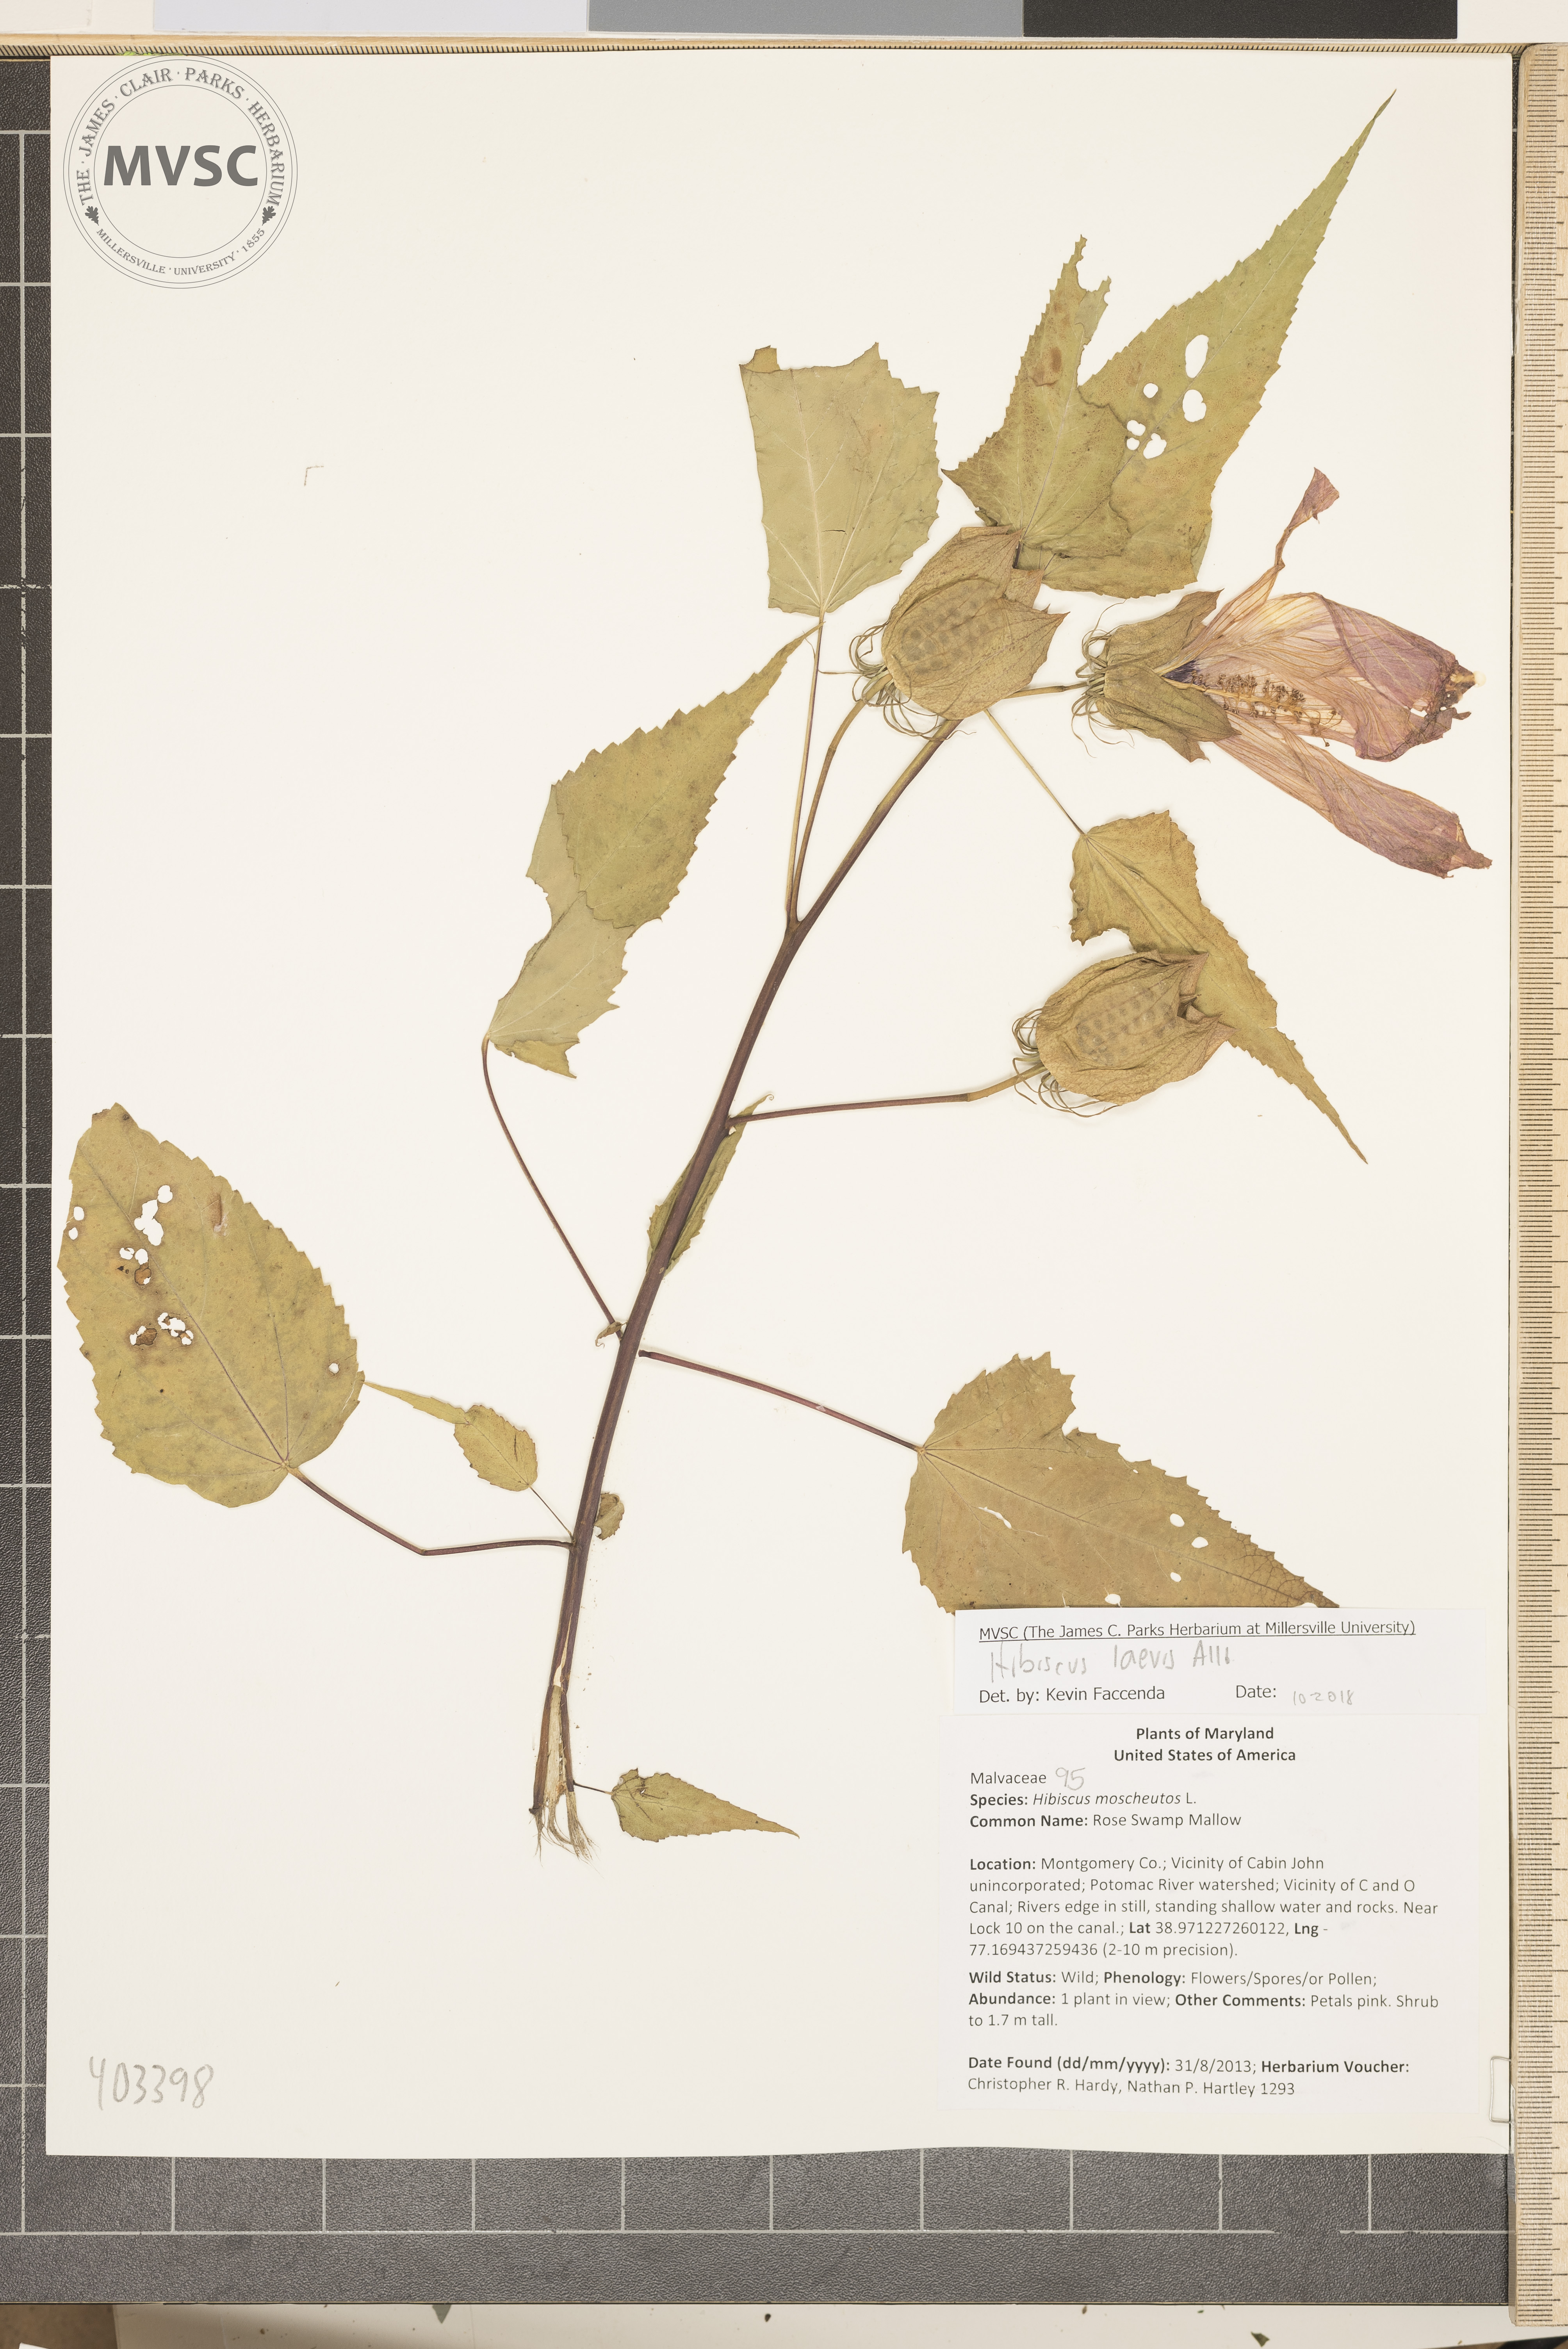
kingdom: Plantae
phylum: Tracheophyta
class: Magnoliopsida
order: Malvales
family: Malvaceae
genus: Hibiscus
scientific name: Hibiscus laevis
